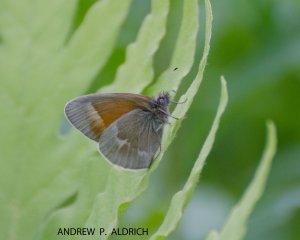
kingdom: Animalia
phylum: Arthropoda
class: Insecta
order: Lepidoptera
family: Nymphalidae
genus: Coenonympha
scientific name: Coenonympha tullia
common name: Large Heath
